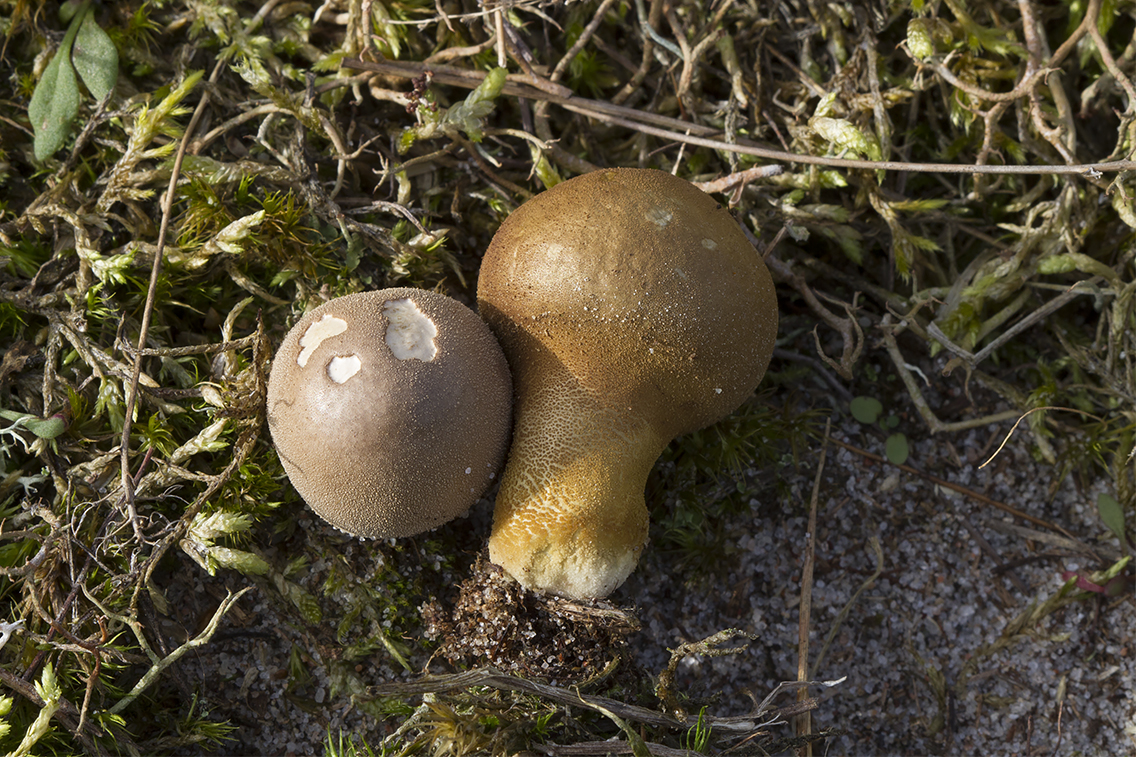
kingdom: Fungi
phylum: Basidiomycota
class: Agaricomycetes
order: Agaricales
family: Lycoperdaceae
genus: Lycoperdon
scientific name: Lycoperdon lividum
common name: mark-støvbold
